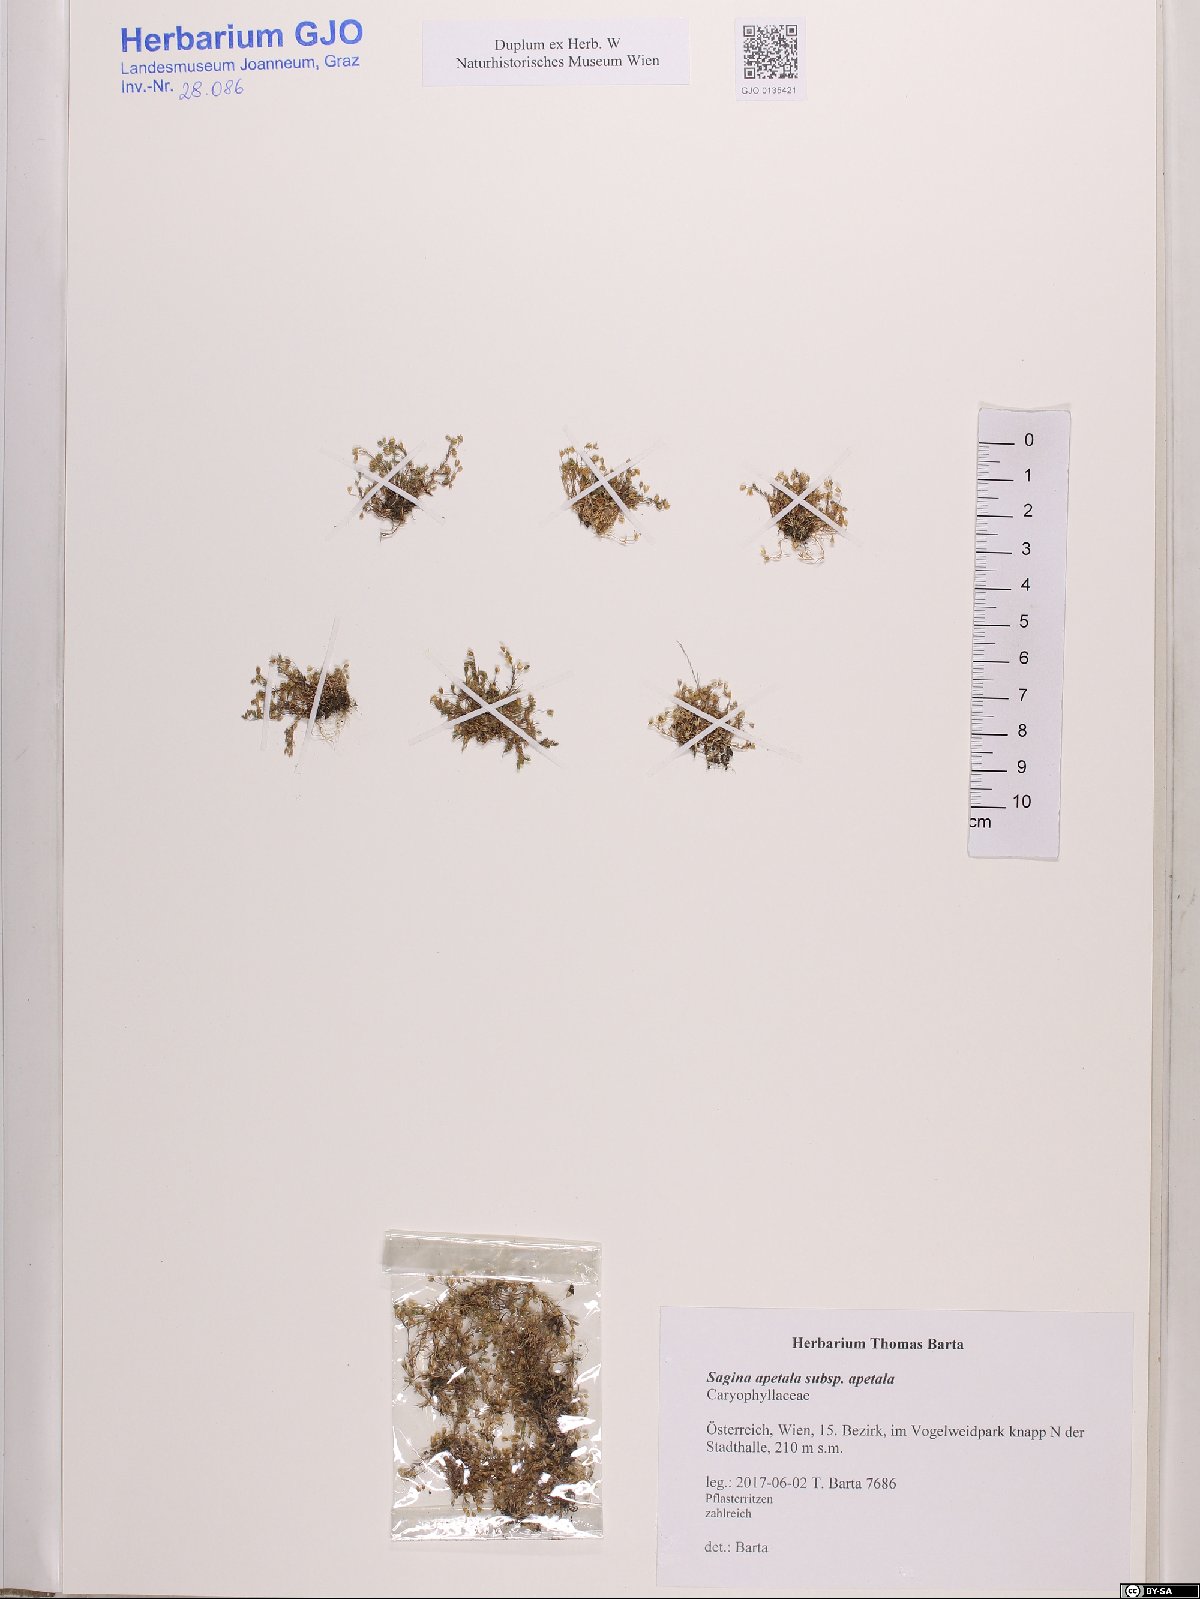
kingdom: Plantae
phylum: Tracheophyta
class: Magnoliopsida
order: Caryophyllales
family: Caryophyllaceae
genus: Sagina
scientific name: Sagina apetala
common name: Annual pearlwort
